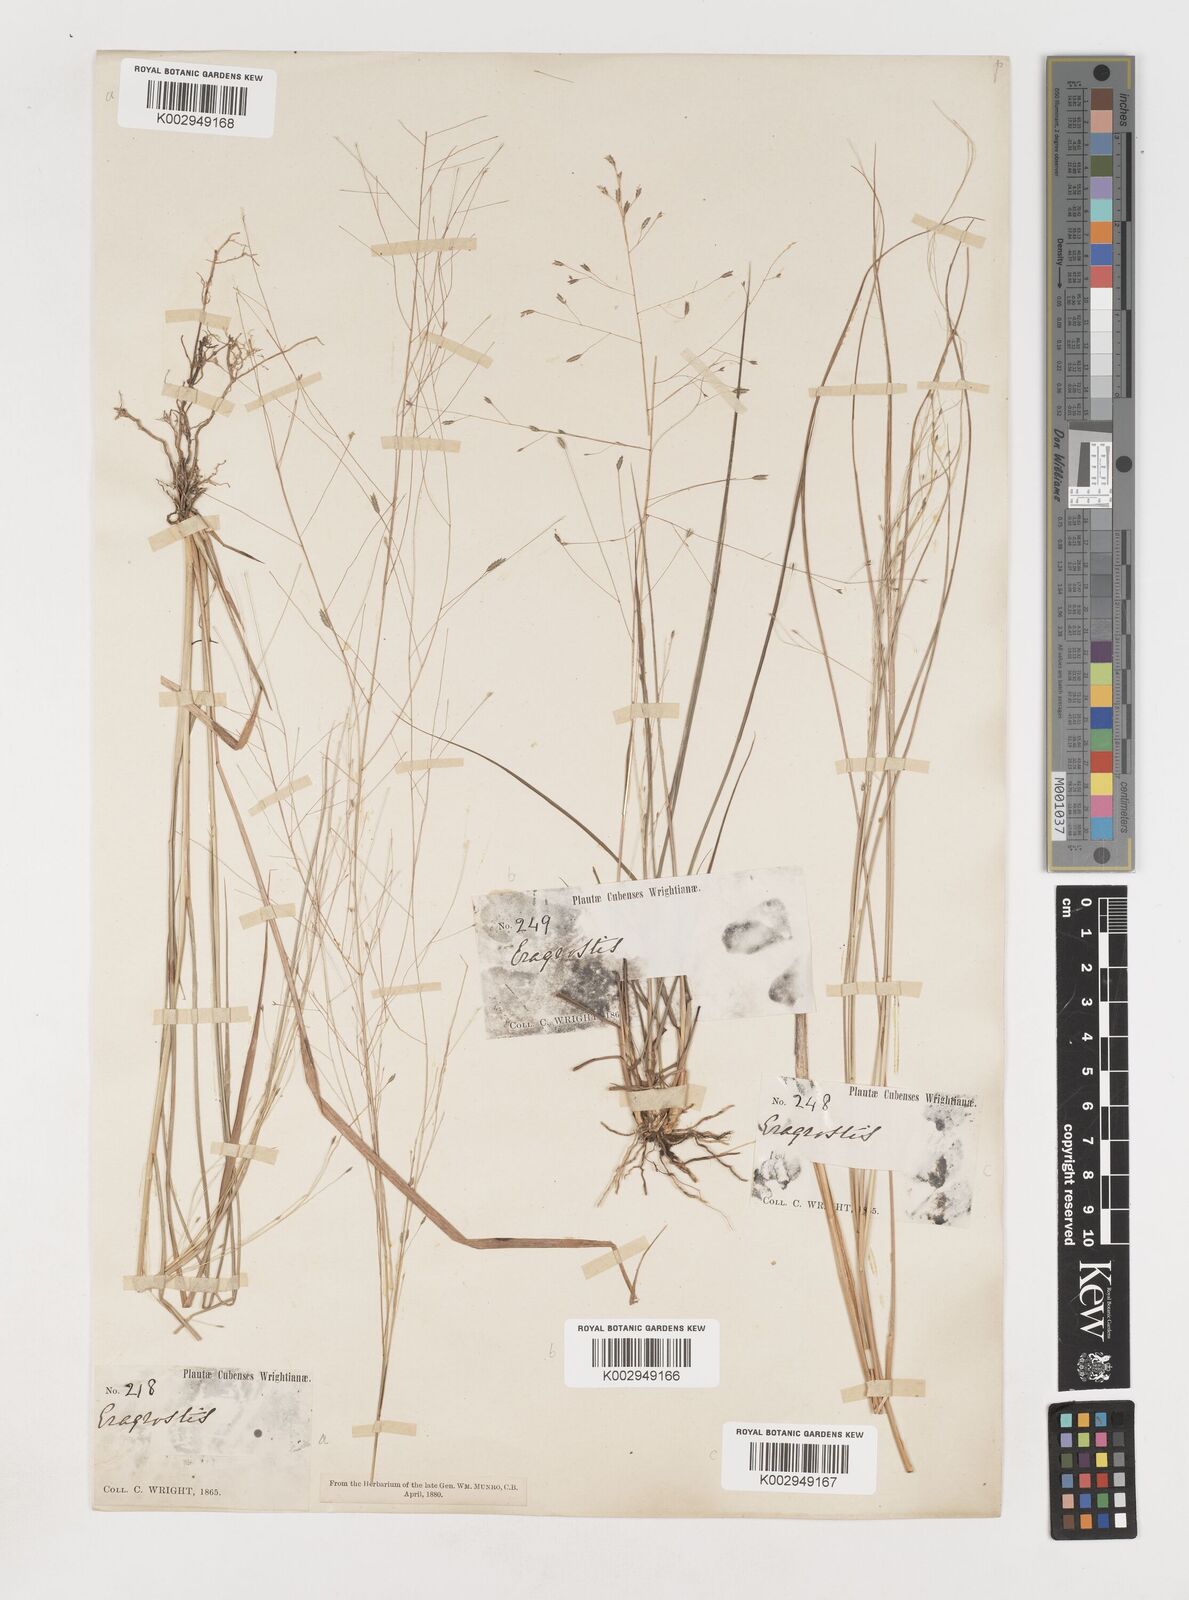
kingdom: Plantae
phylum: Tracheophyta
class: Liliopsida
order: Poales
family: Poaceae
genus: Eragrostis
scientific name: Eragrostis elliottii
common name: Elliott's love grass
